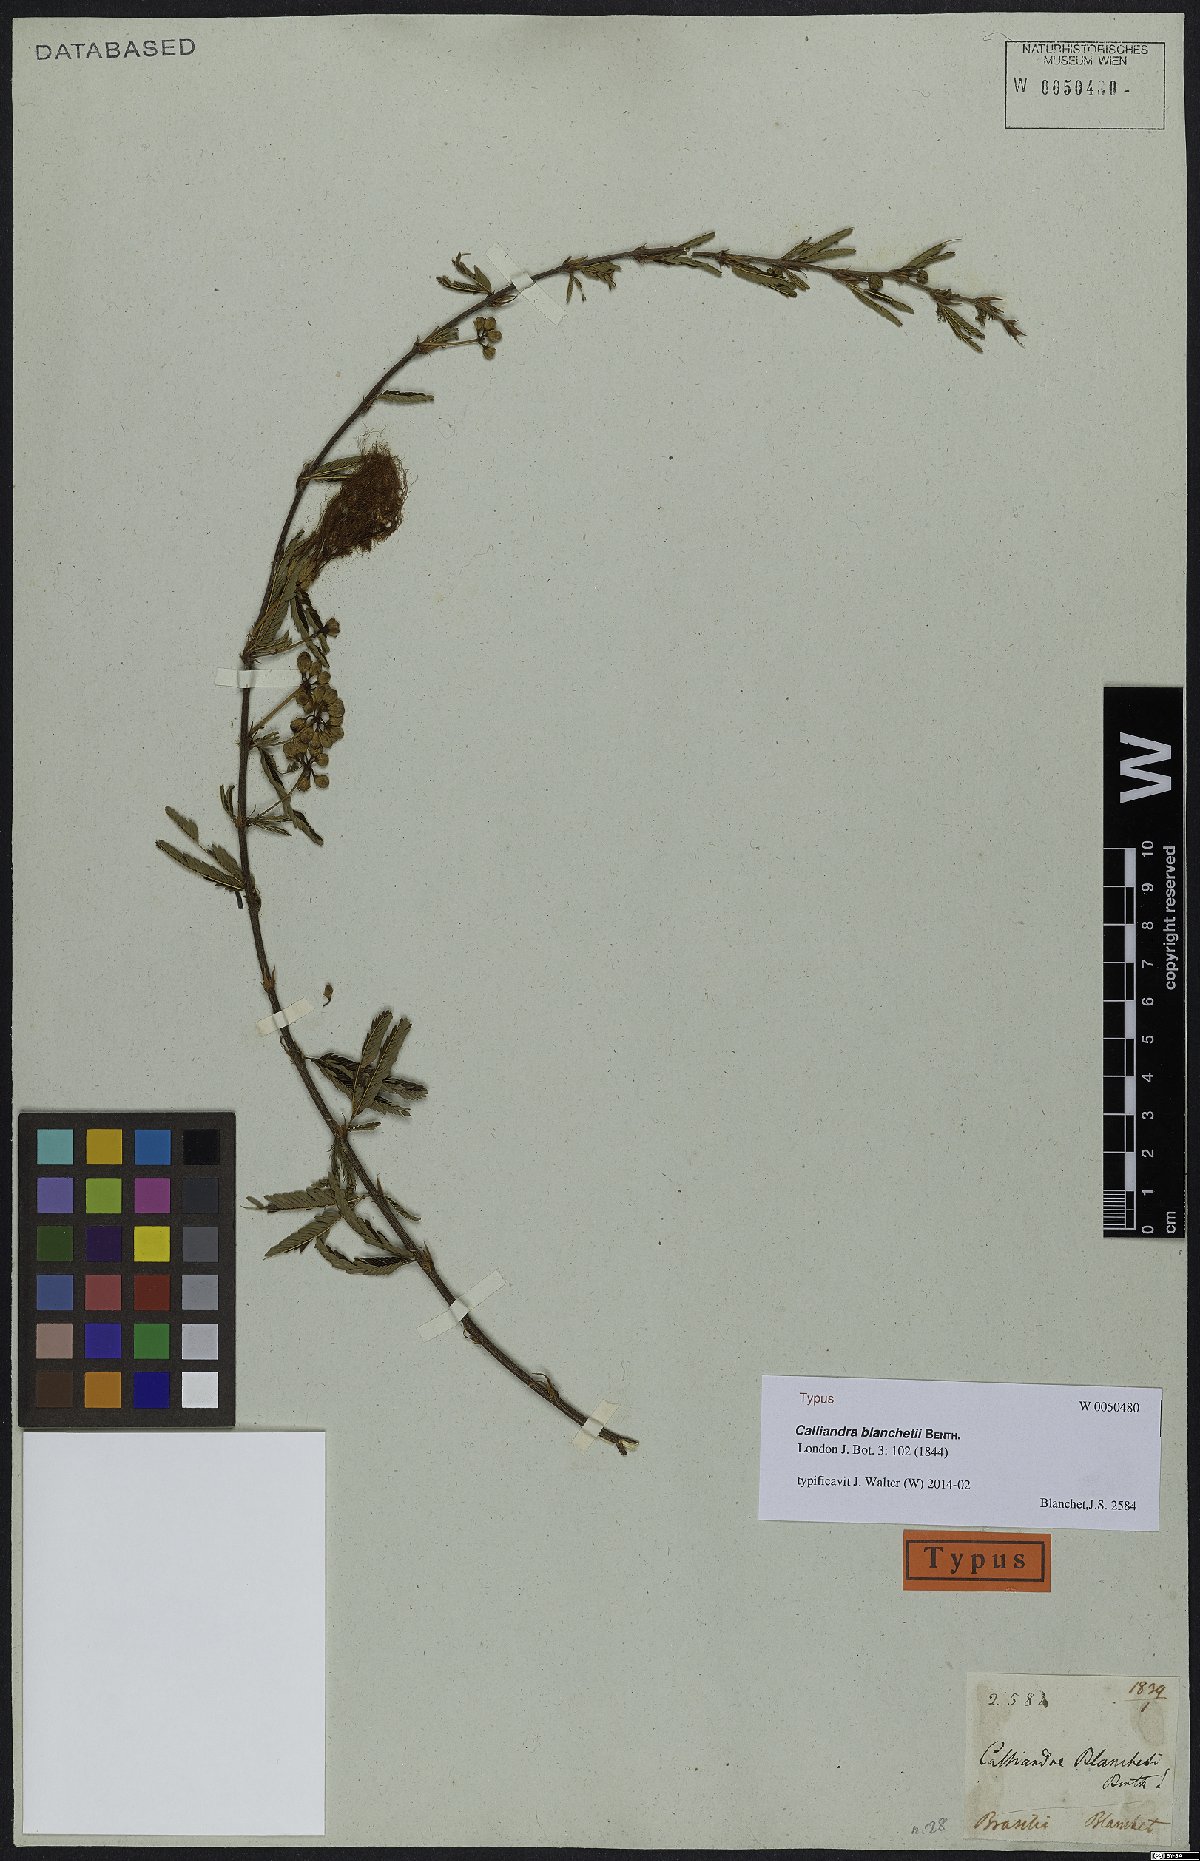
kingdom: Plantae
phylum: Tracheophyta
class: Magnoliopsida
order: Fabales
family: Fabaceae
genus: Calliandra
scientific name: Calliandra blanchetii
